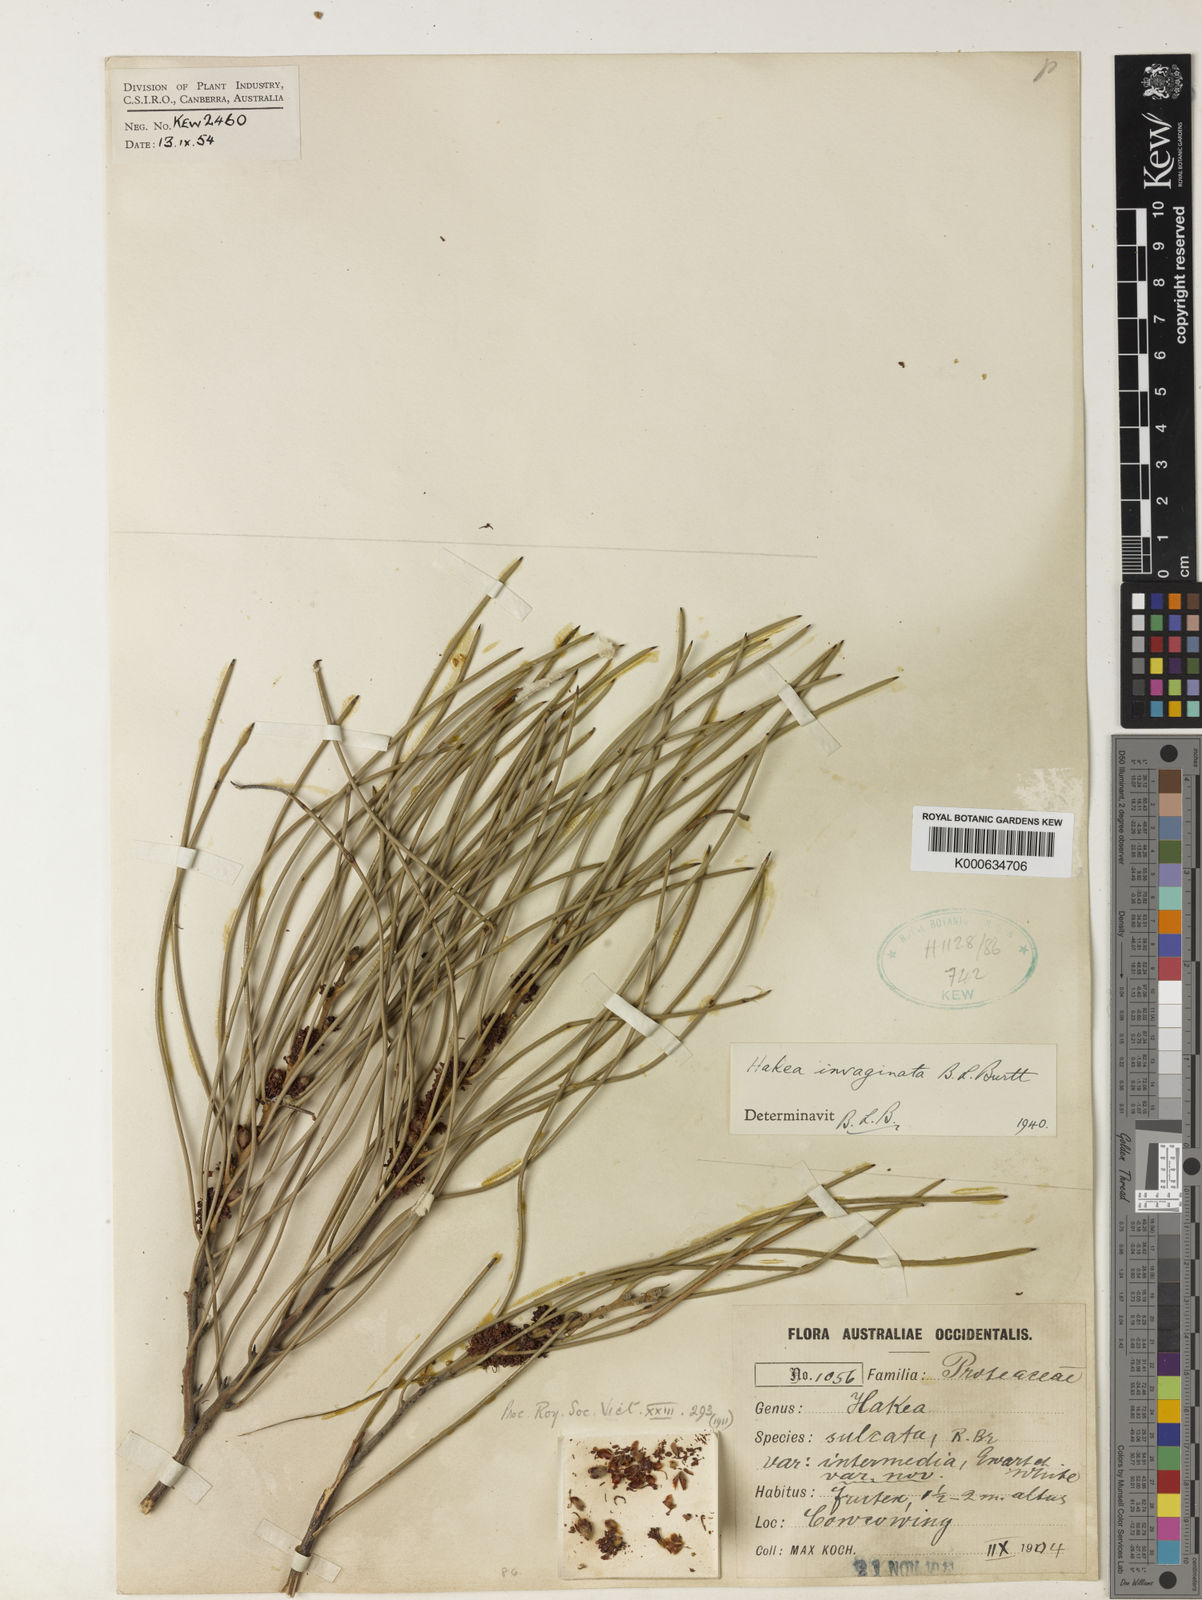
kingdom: Plantae
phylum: Tracheophyta
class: Magnoliopsida
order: Proteales
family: Proteaceae
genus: Hakea
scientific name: Hakea invaginata
